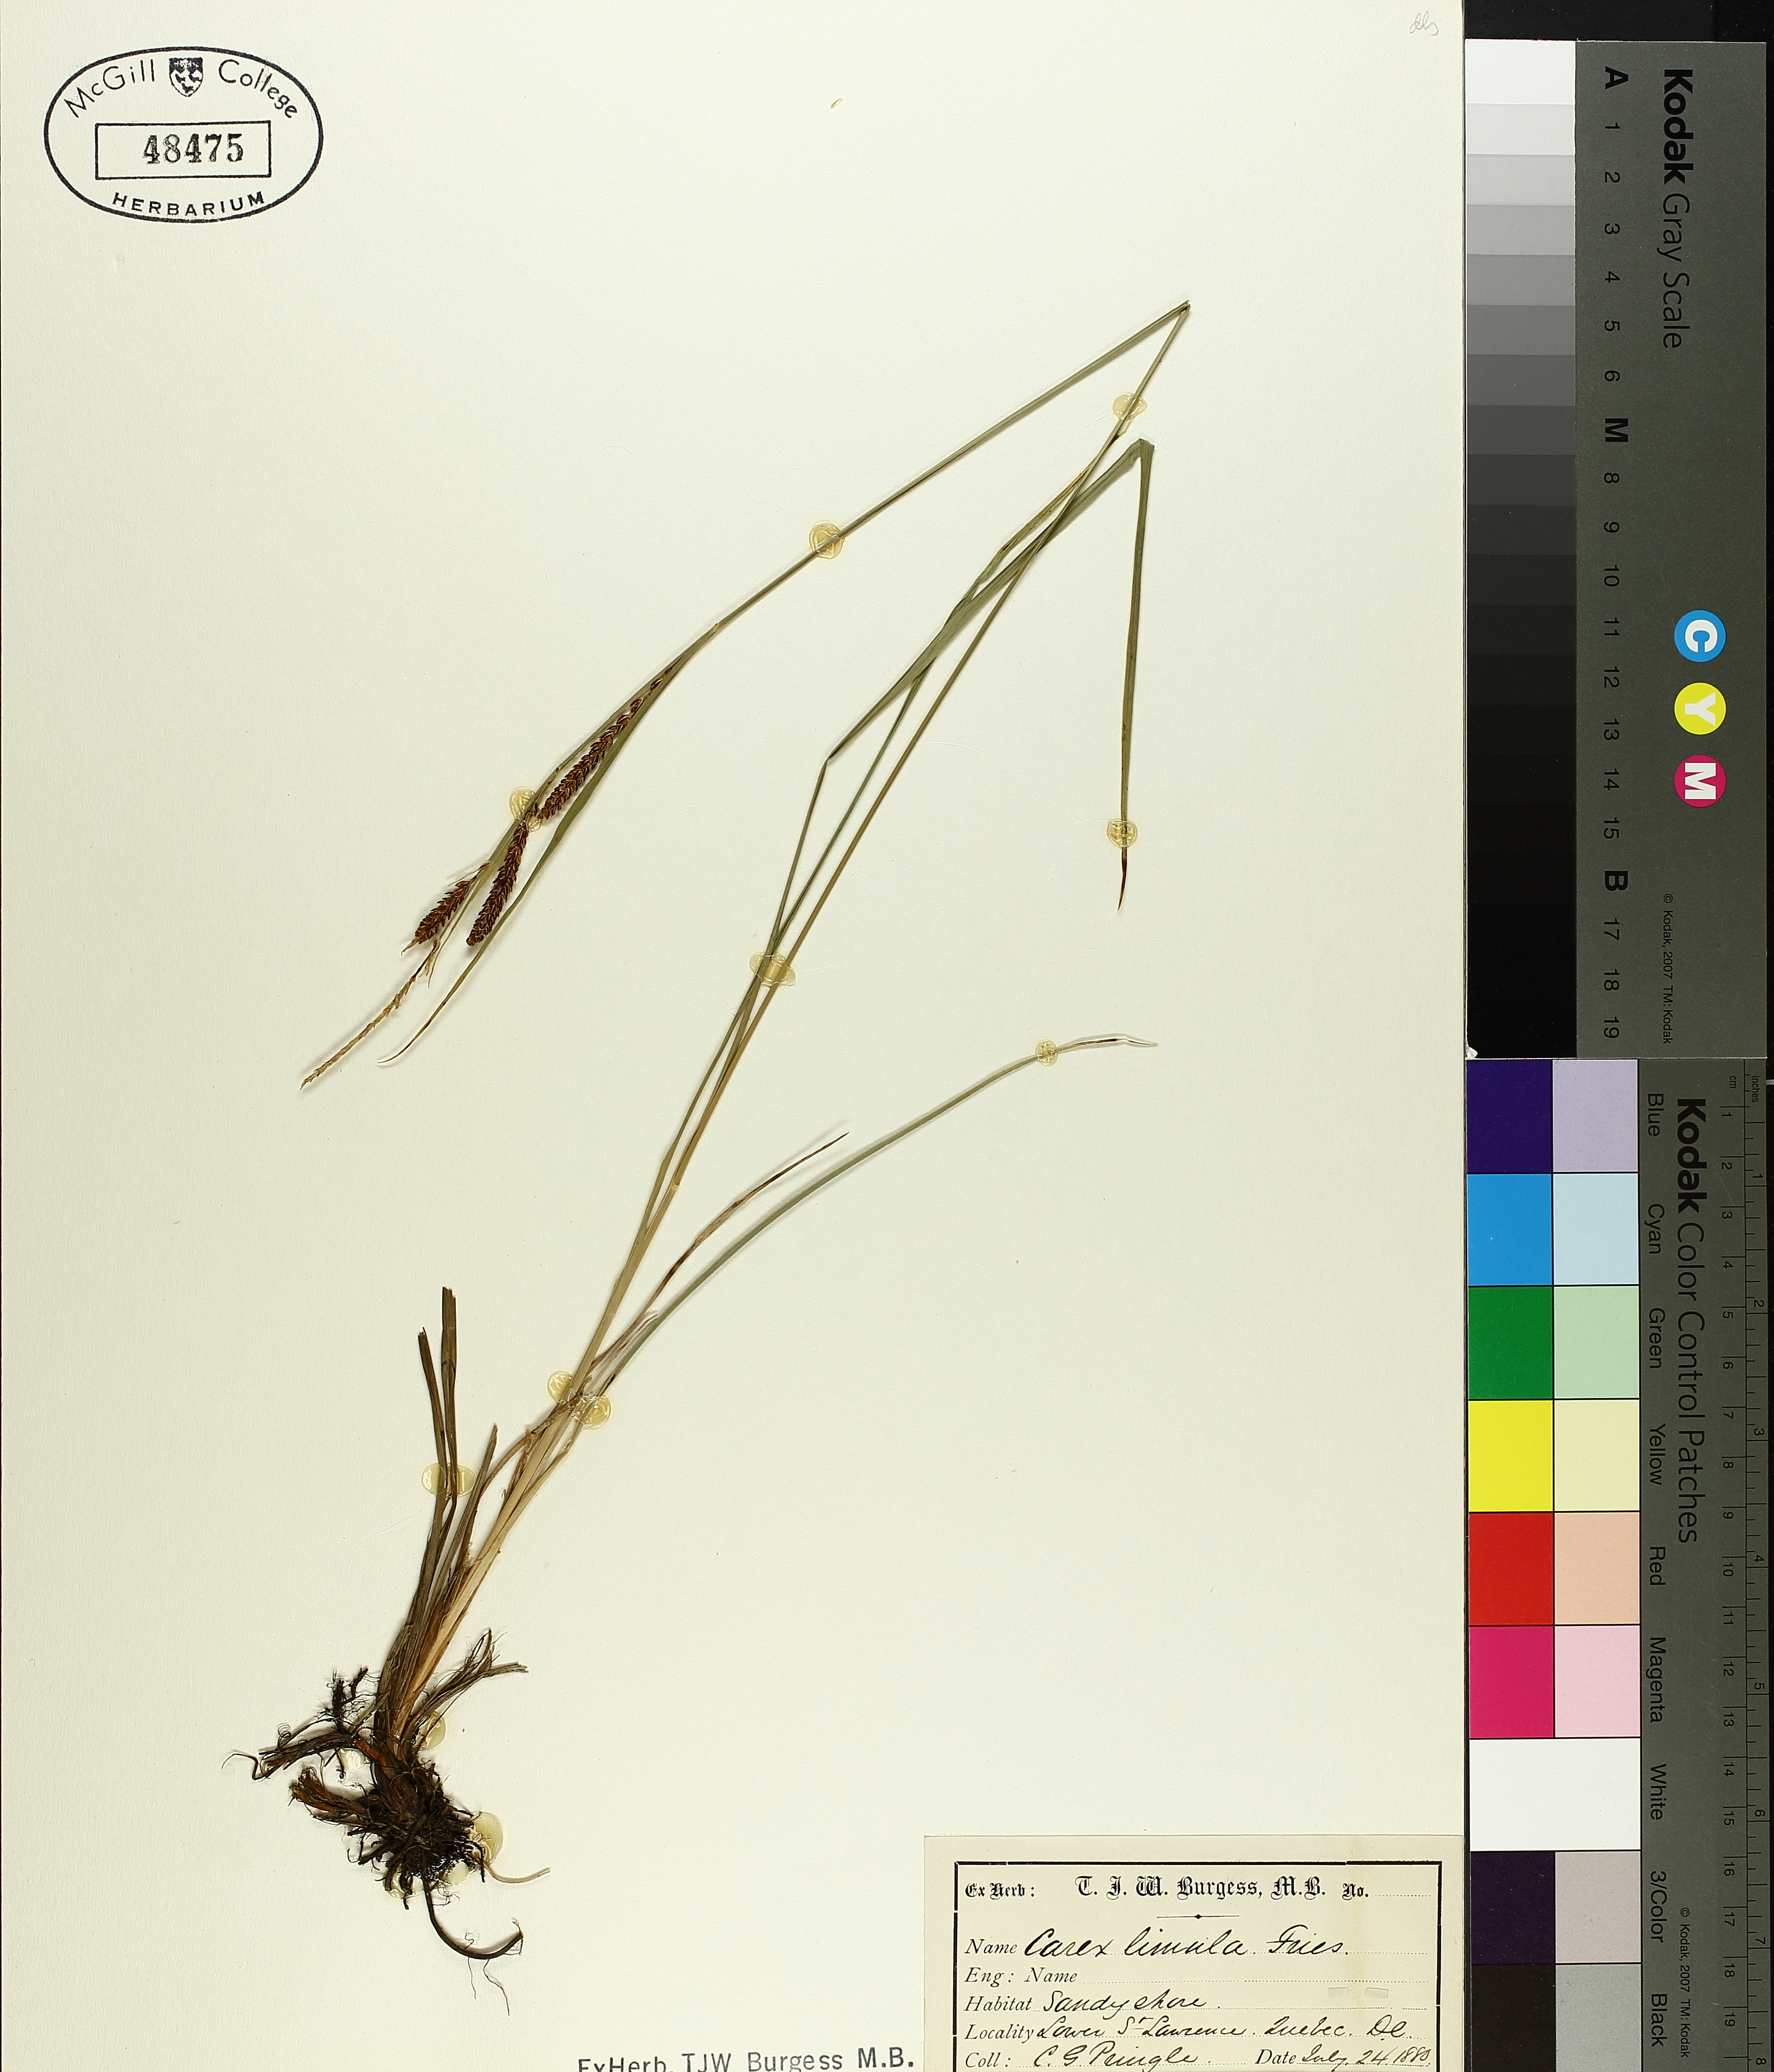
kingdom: Plantae
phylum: Tracheophyta
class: Liliopsida
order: Poales
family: Cyperaceae
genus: Carex
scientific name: Carex limula
